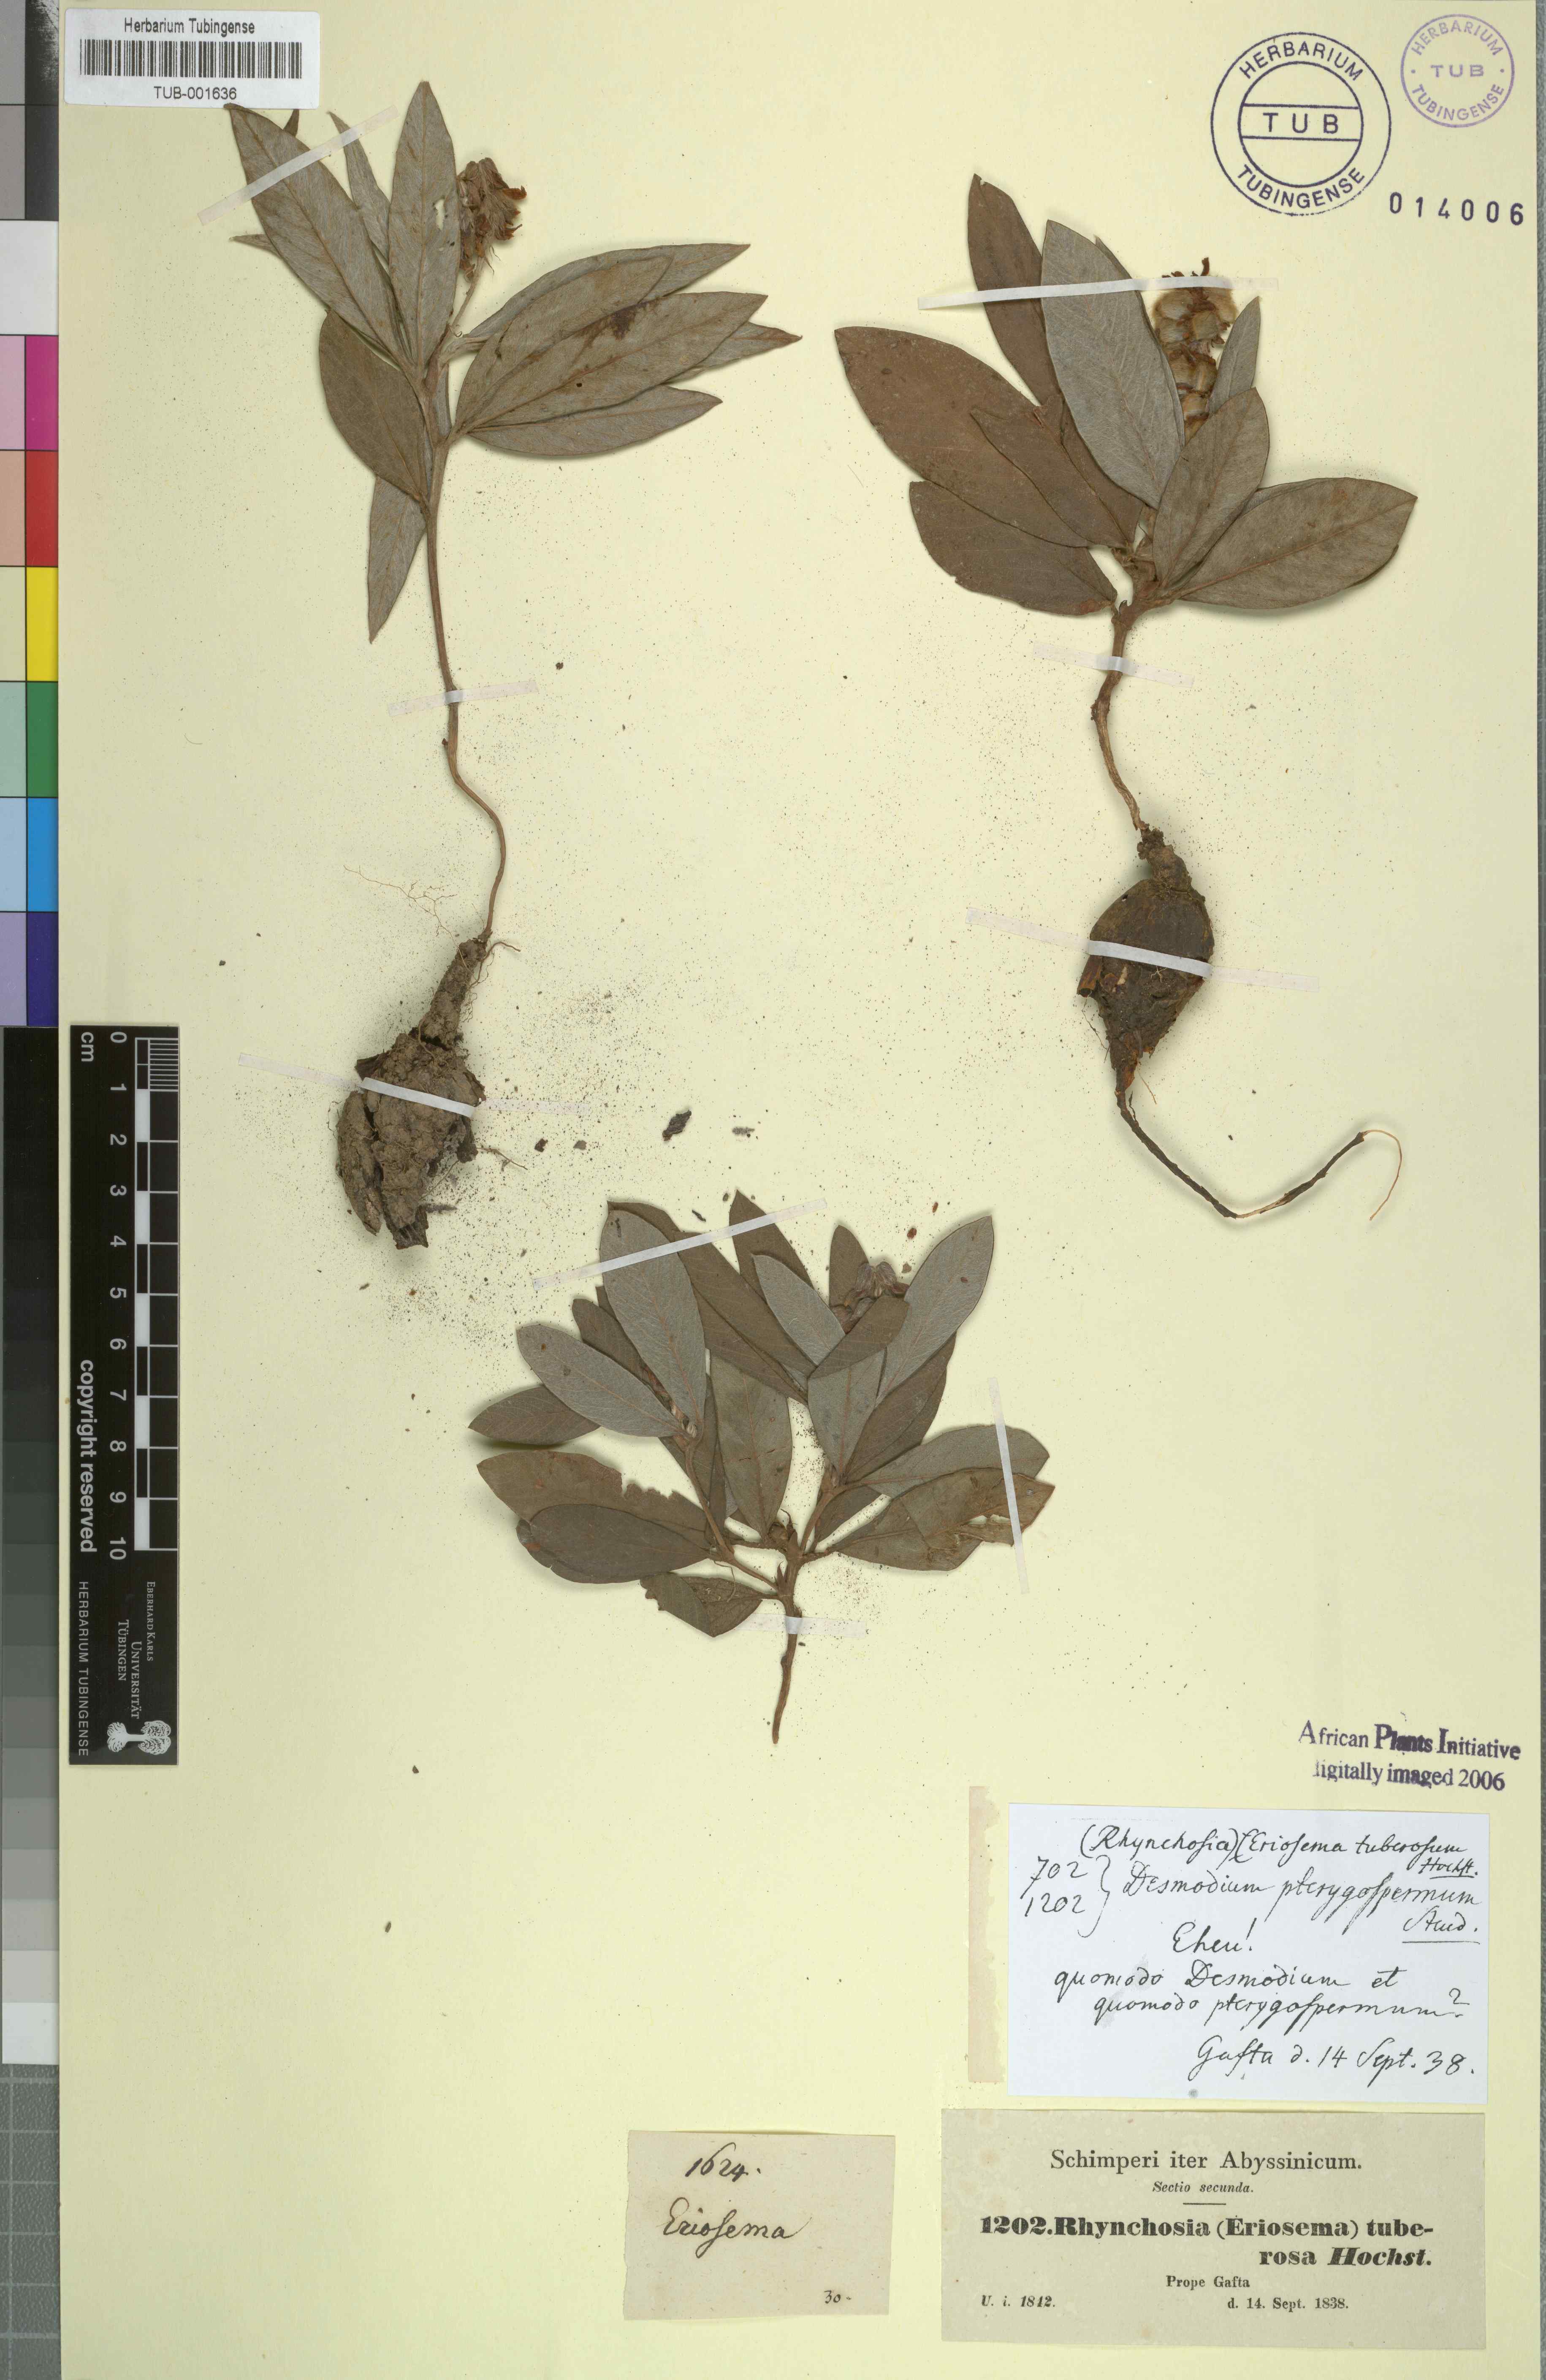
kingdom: Plantae
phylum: Tracheophyta
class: Magnoliopsida
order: Fabales
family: Fabaceae
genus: Eriosema
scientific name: Eriosema tuberosum
